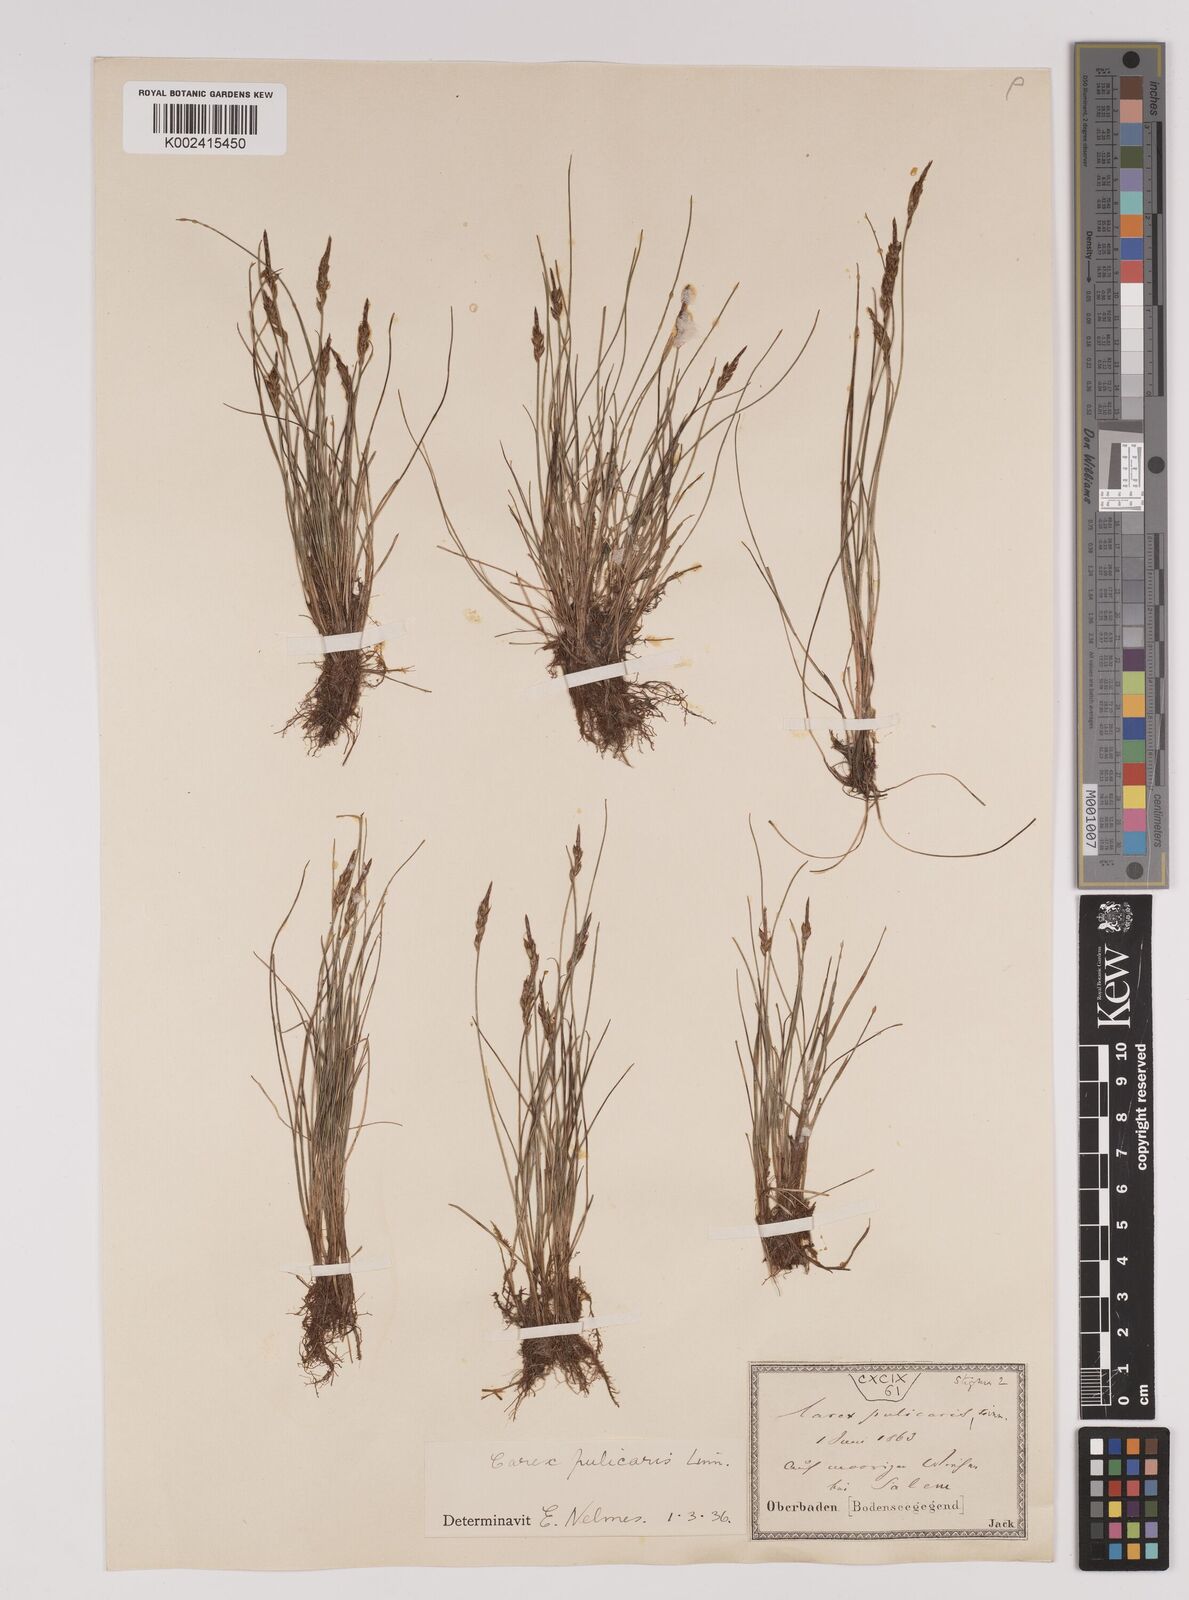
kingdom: Plantae
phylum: Tracheophyta
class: Liliopsida
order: Poales
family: Cyperaceae
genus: Carex
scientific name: Carex pulicaris
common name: Flea sedge
